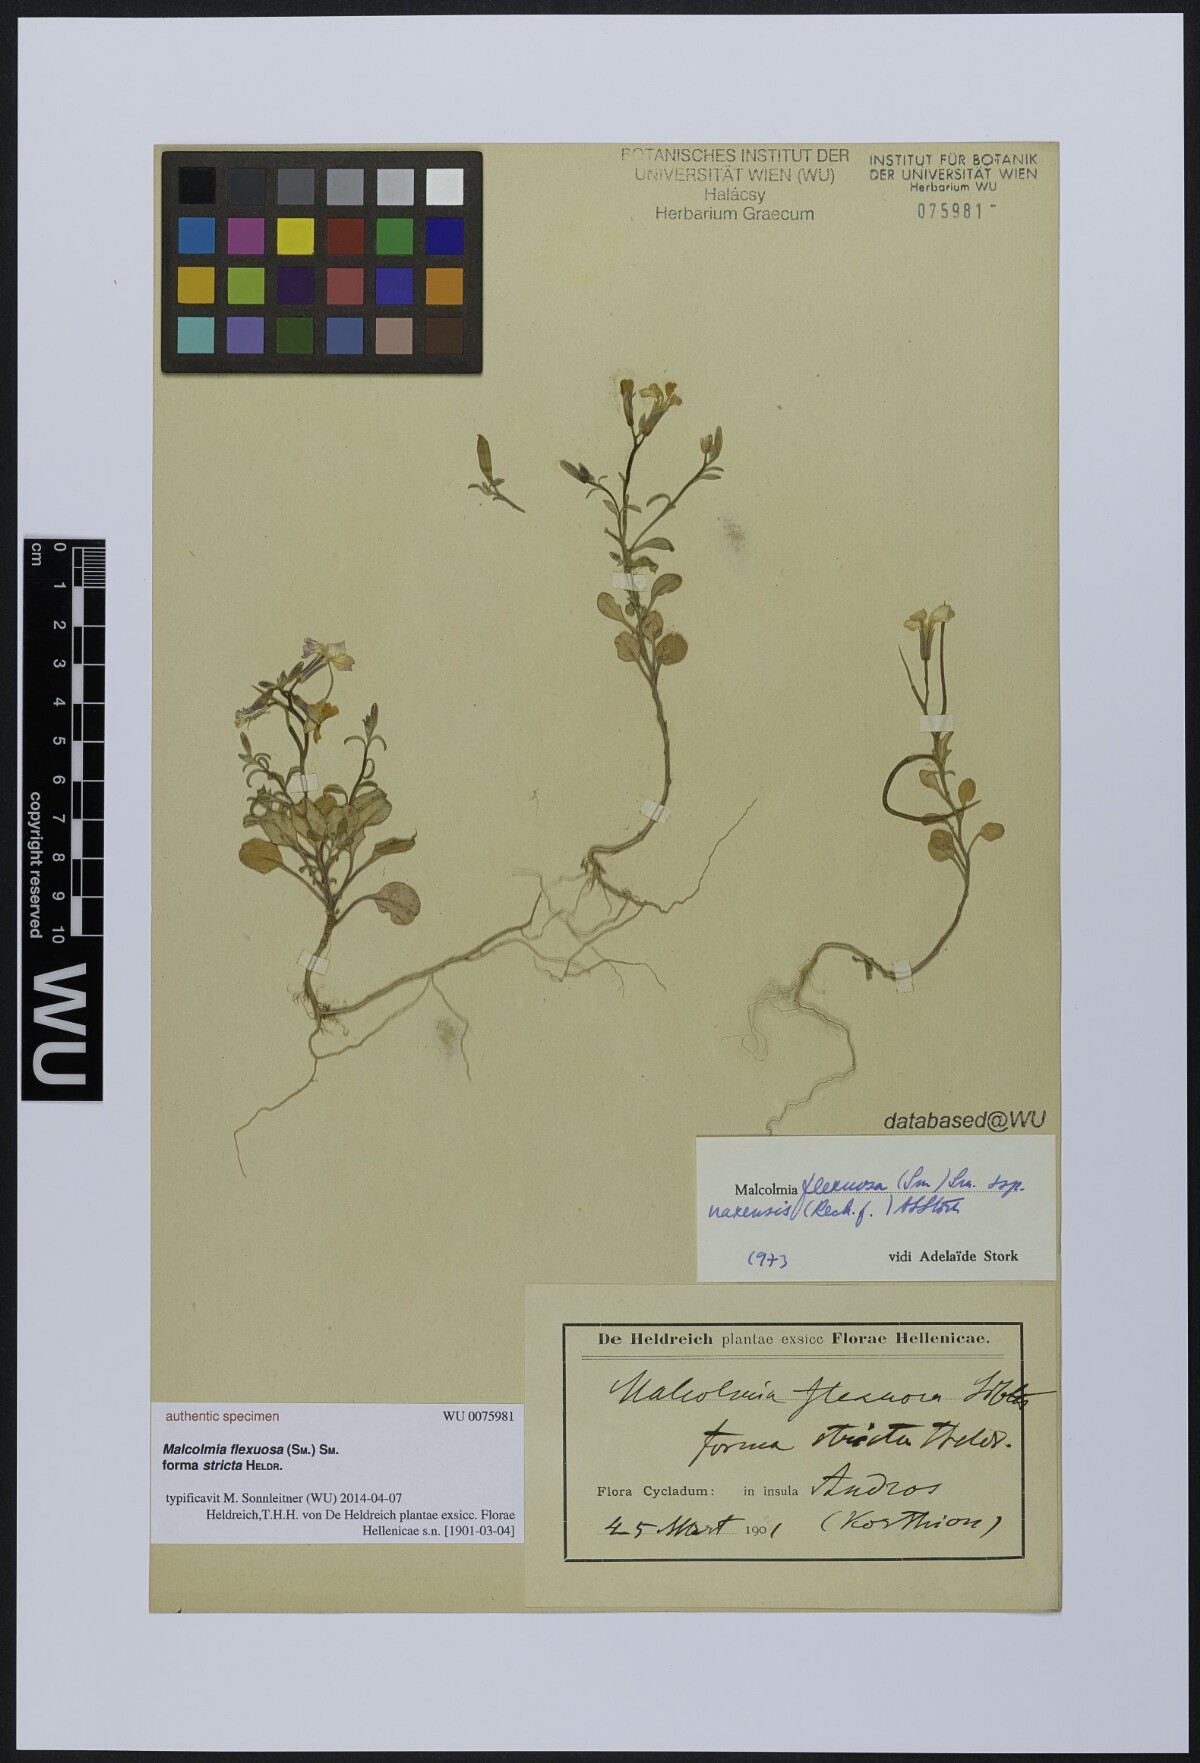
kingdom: Plantae
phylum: Tracheophyta
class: Magnoliopsida
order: Brassicales
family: Brassicaceae
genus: Malcolmia
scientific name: Malcolmia flexuosa
